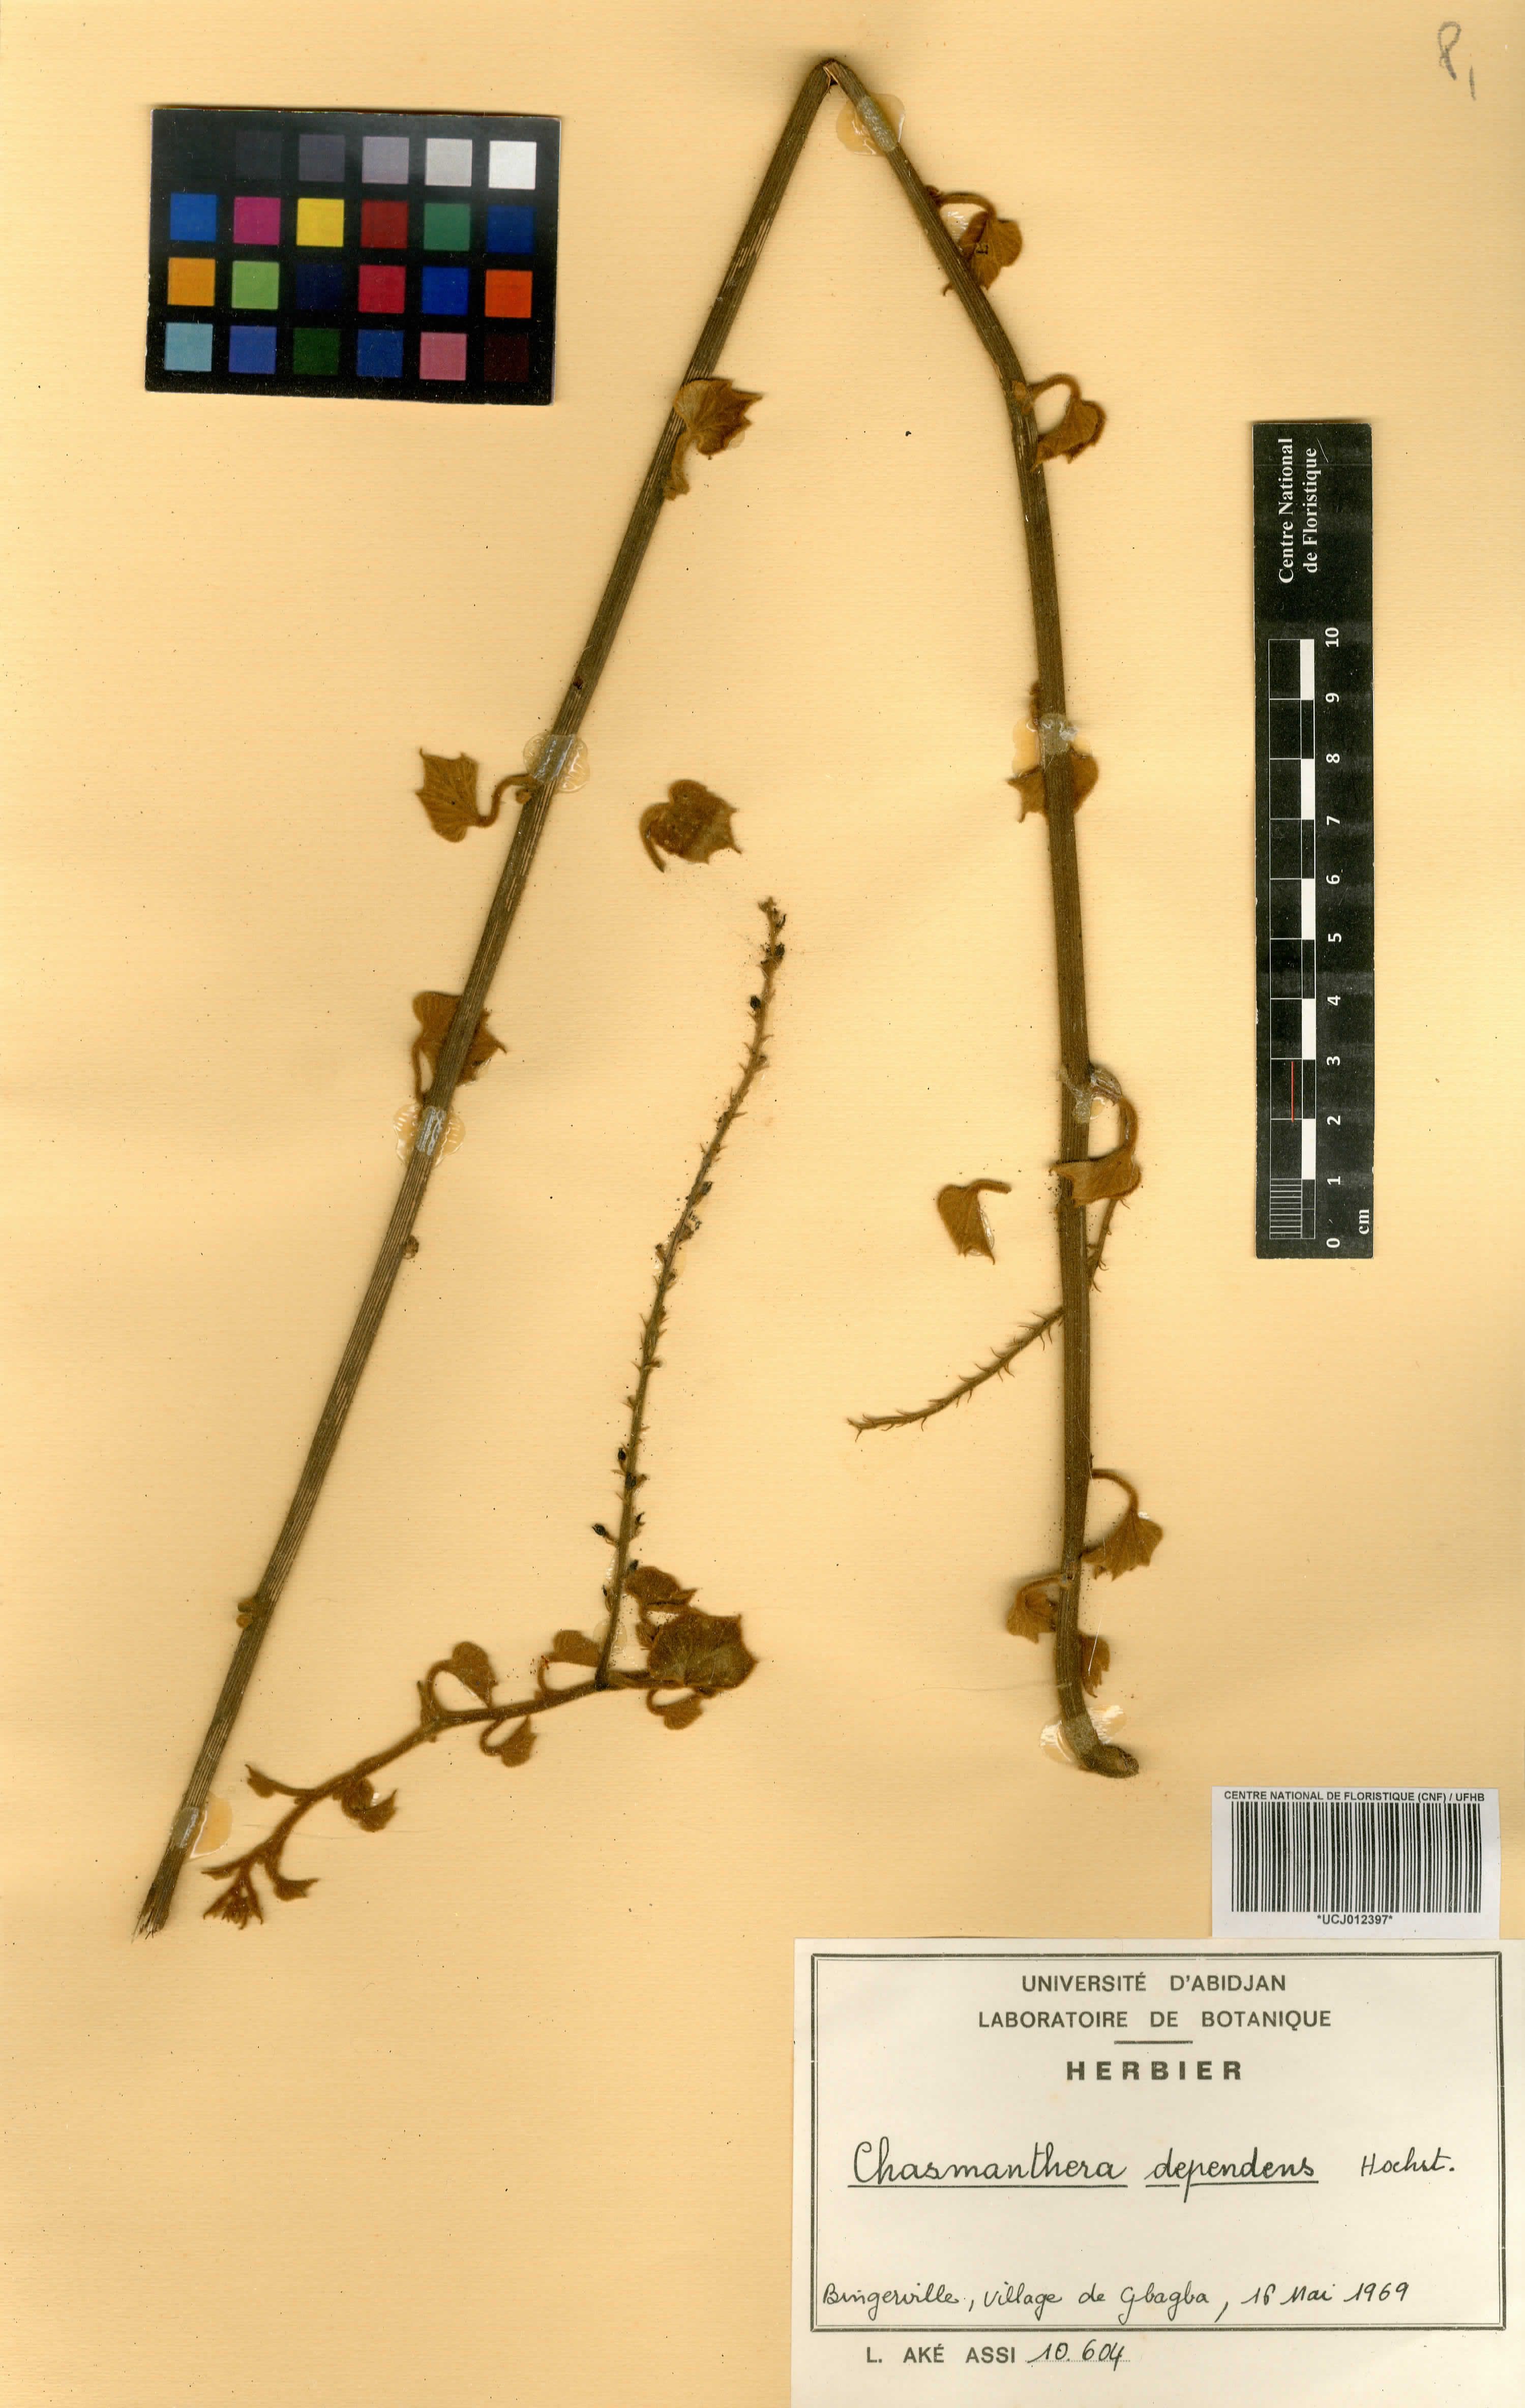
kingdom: Plantae
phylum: Tracheophyta
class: Magnoliopsida
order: Ranunculales
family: Menispermaceae
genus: Chasmanthera
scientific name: Chasmanthera dependens
